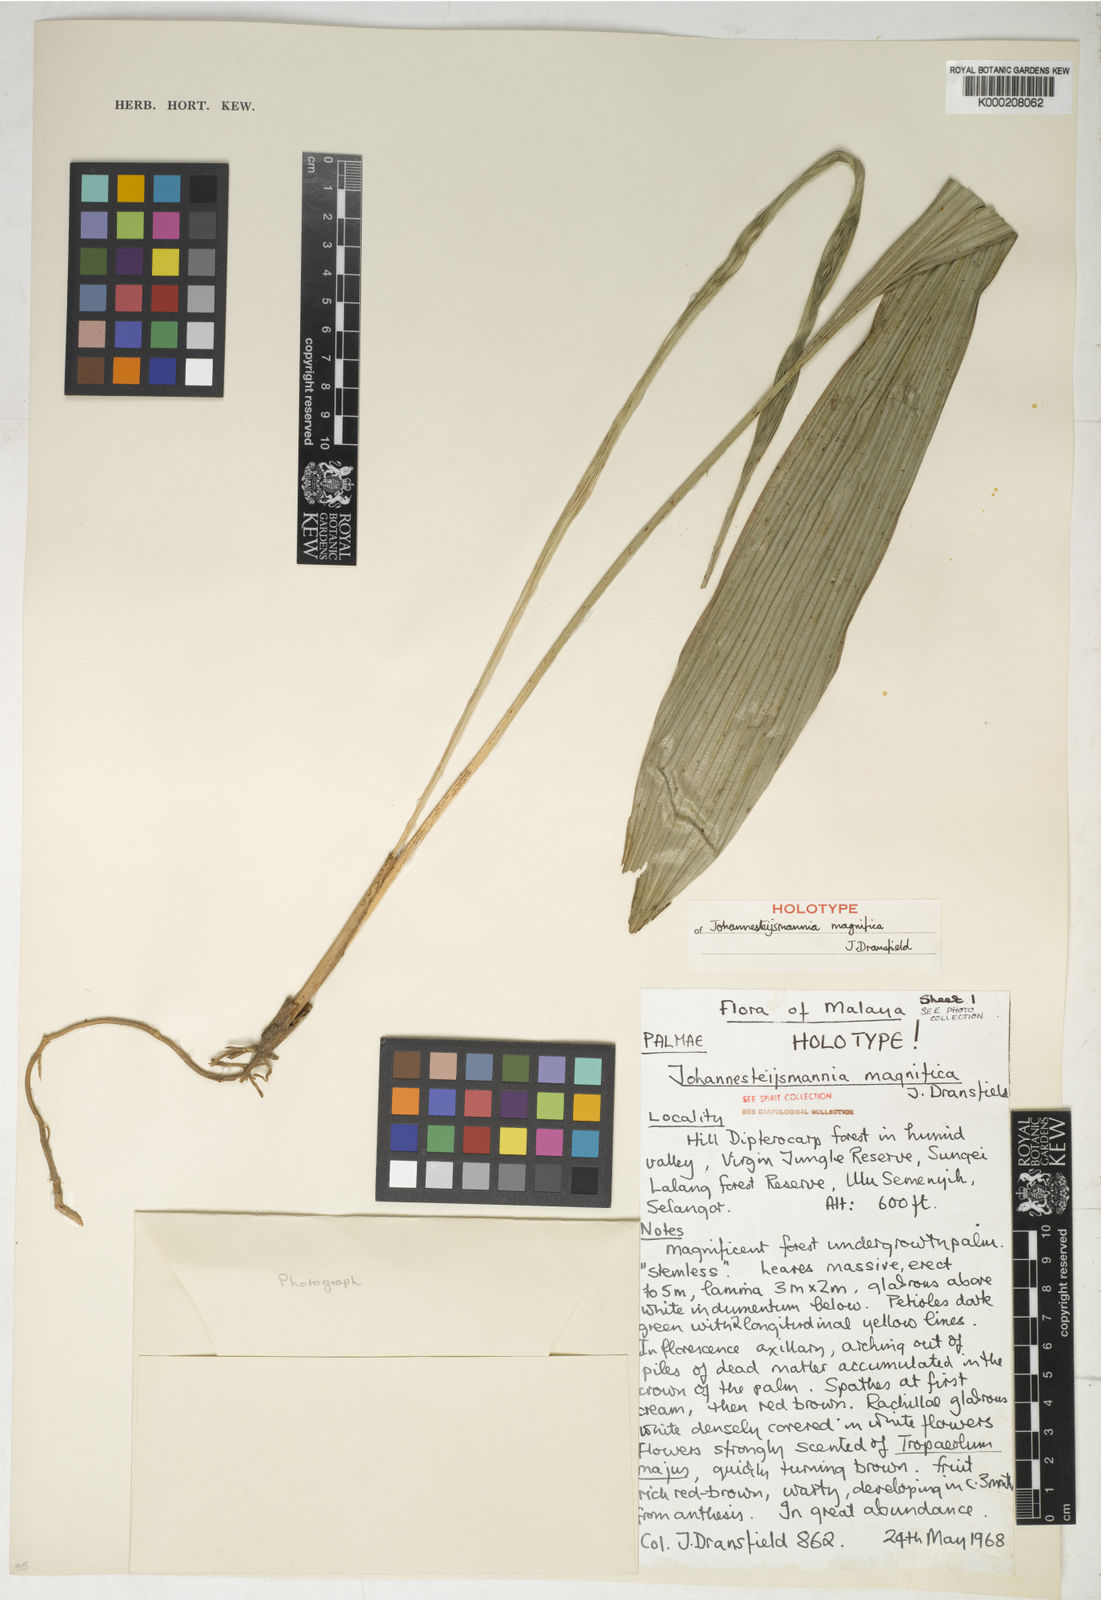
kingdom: Plantae
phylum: Tracheophyta
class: Liliopsida
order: Arecales
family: Arecaceae
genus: Johannesteijsmannia
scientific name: Johannesteijsmannia magnifica
